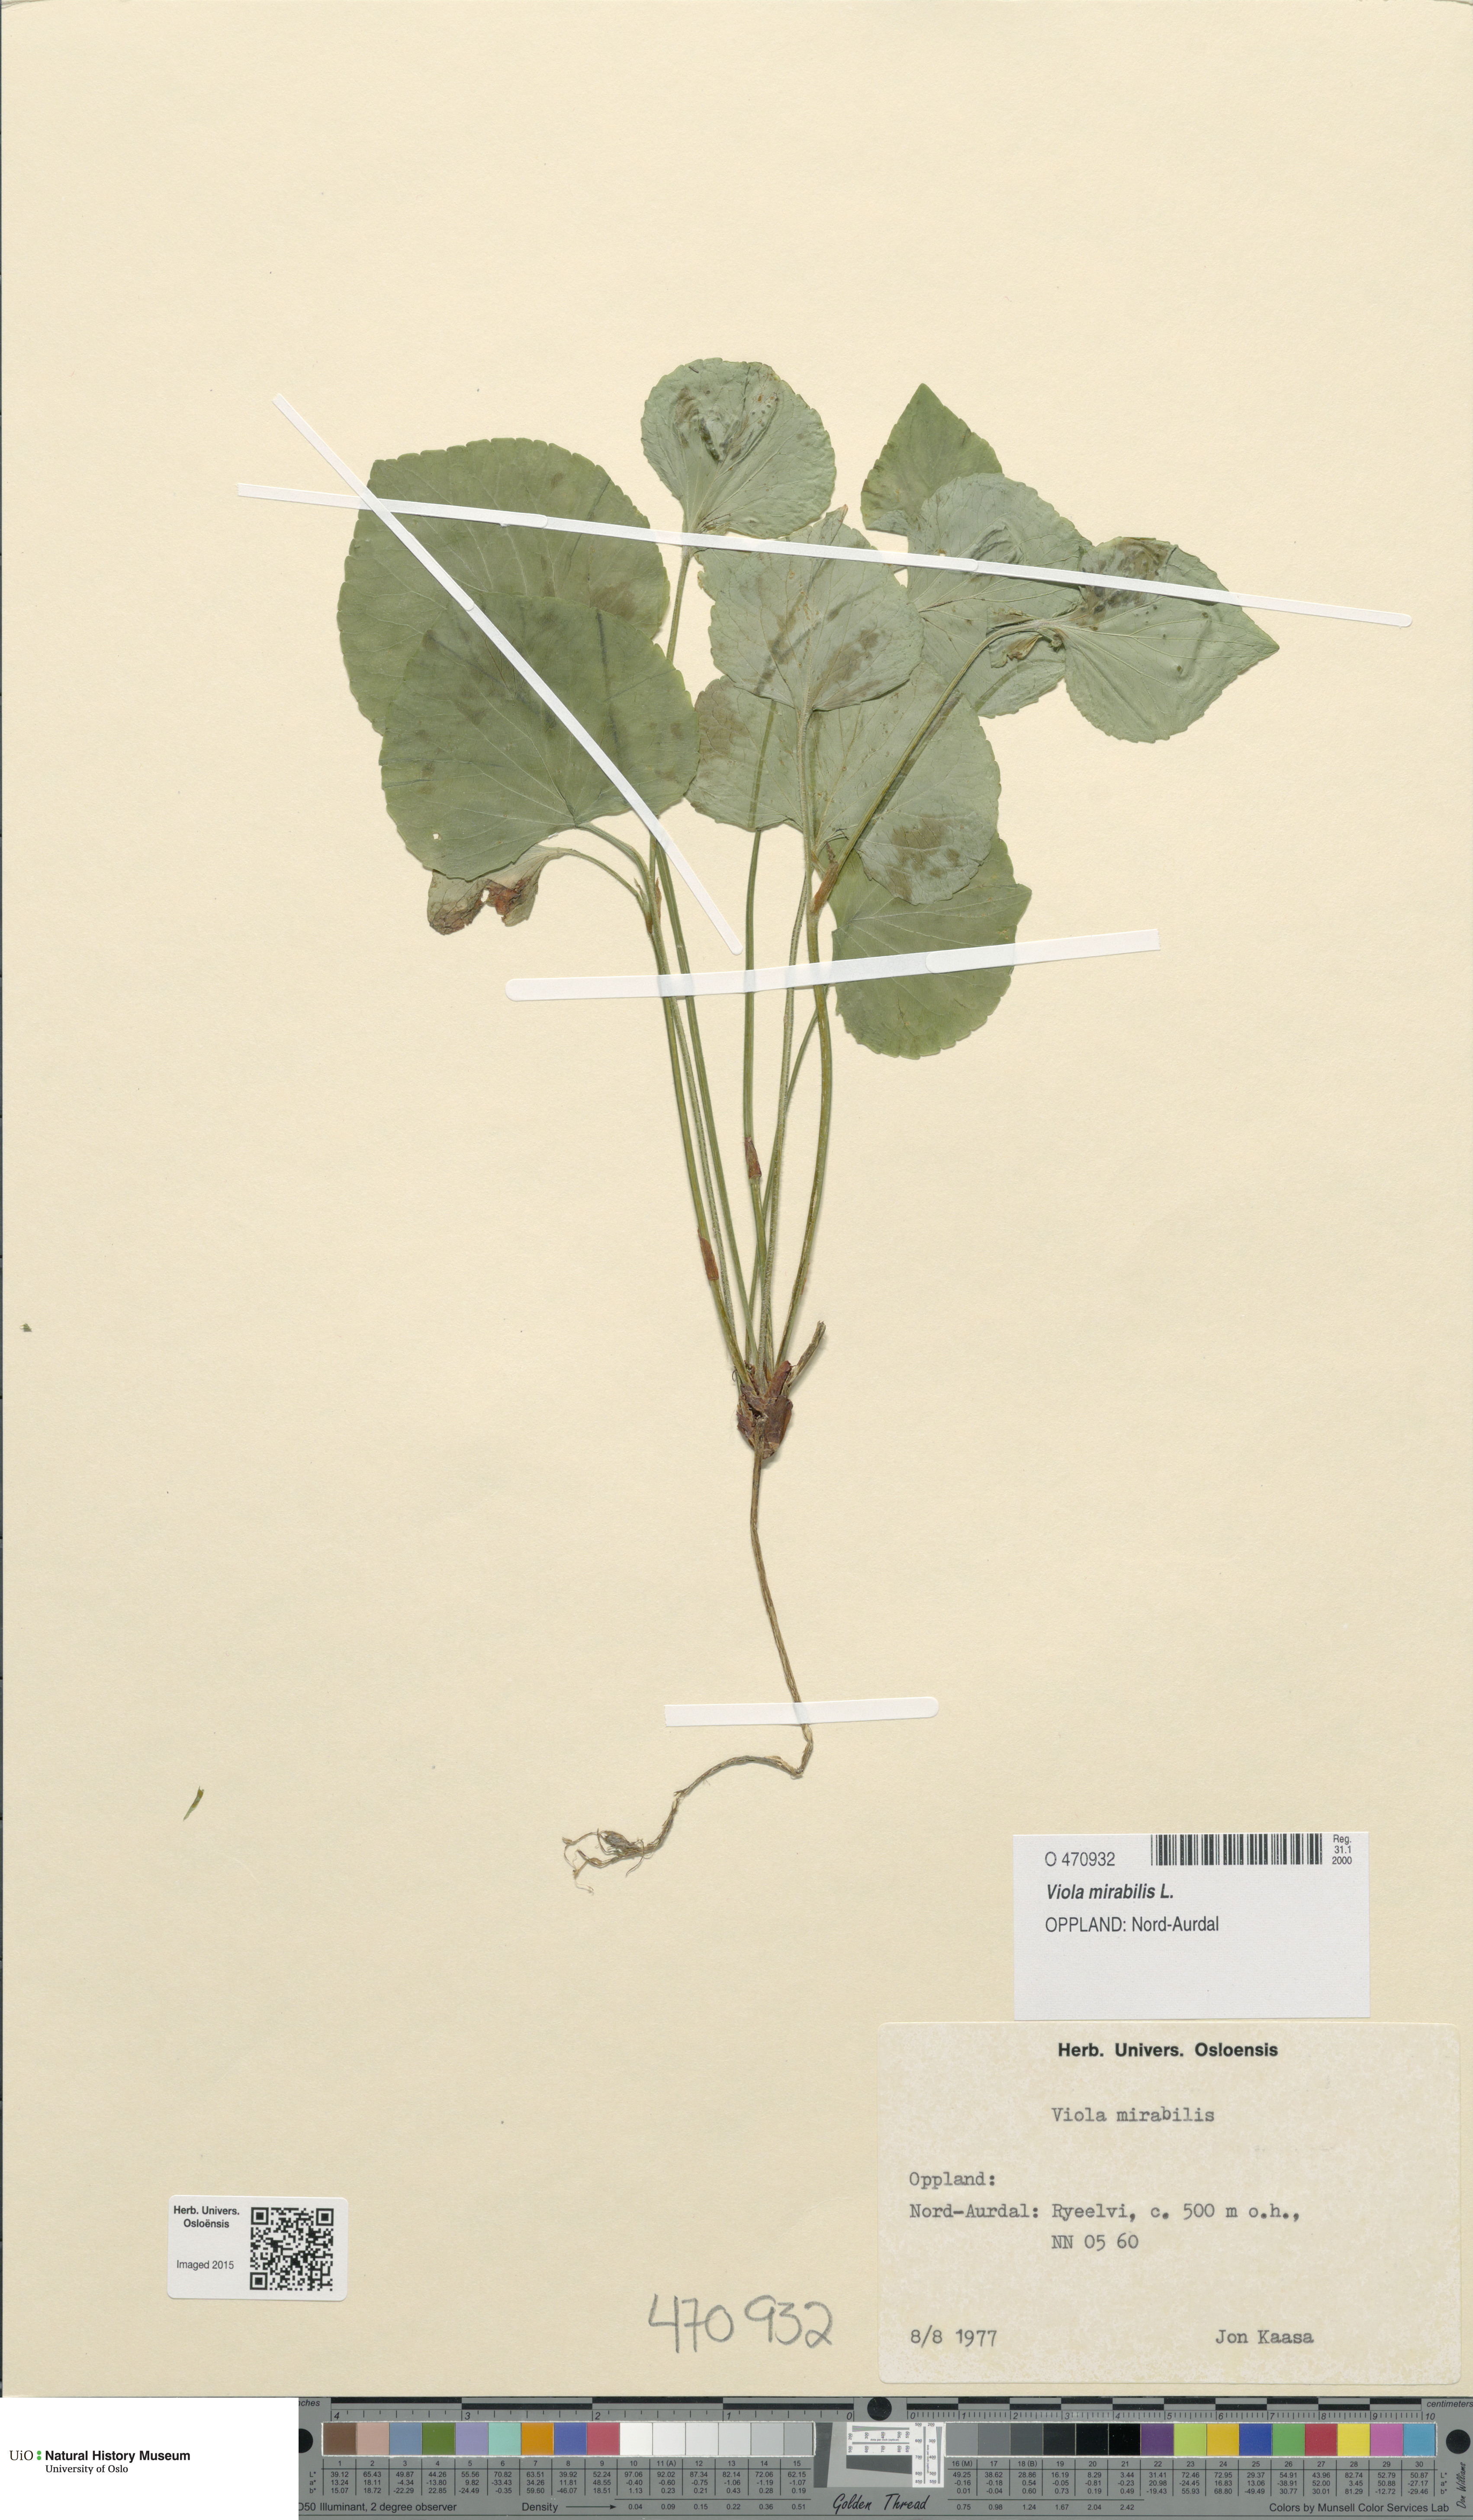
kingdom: Plantae
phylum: Tracheophyta
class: Magnoliopsida
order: Malpighiales
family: Violaceae
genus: Viola
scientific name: Viola mirabilis
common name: Wonder violet
